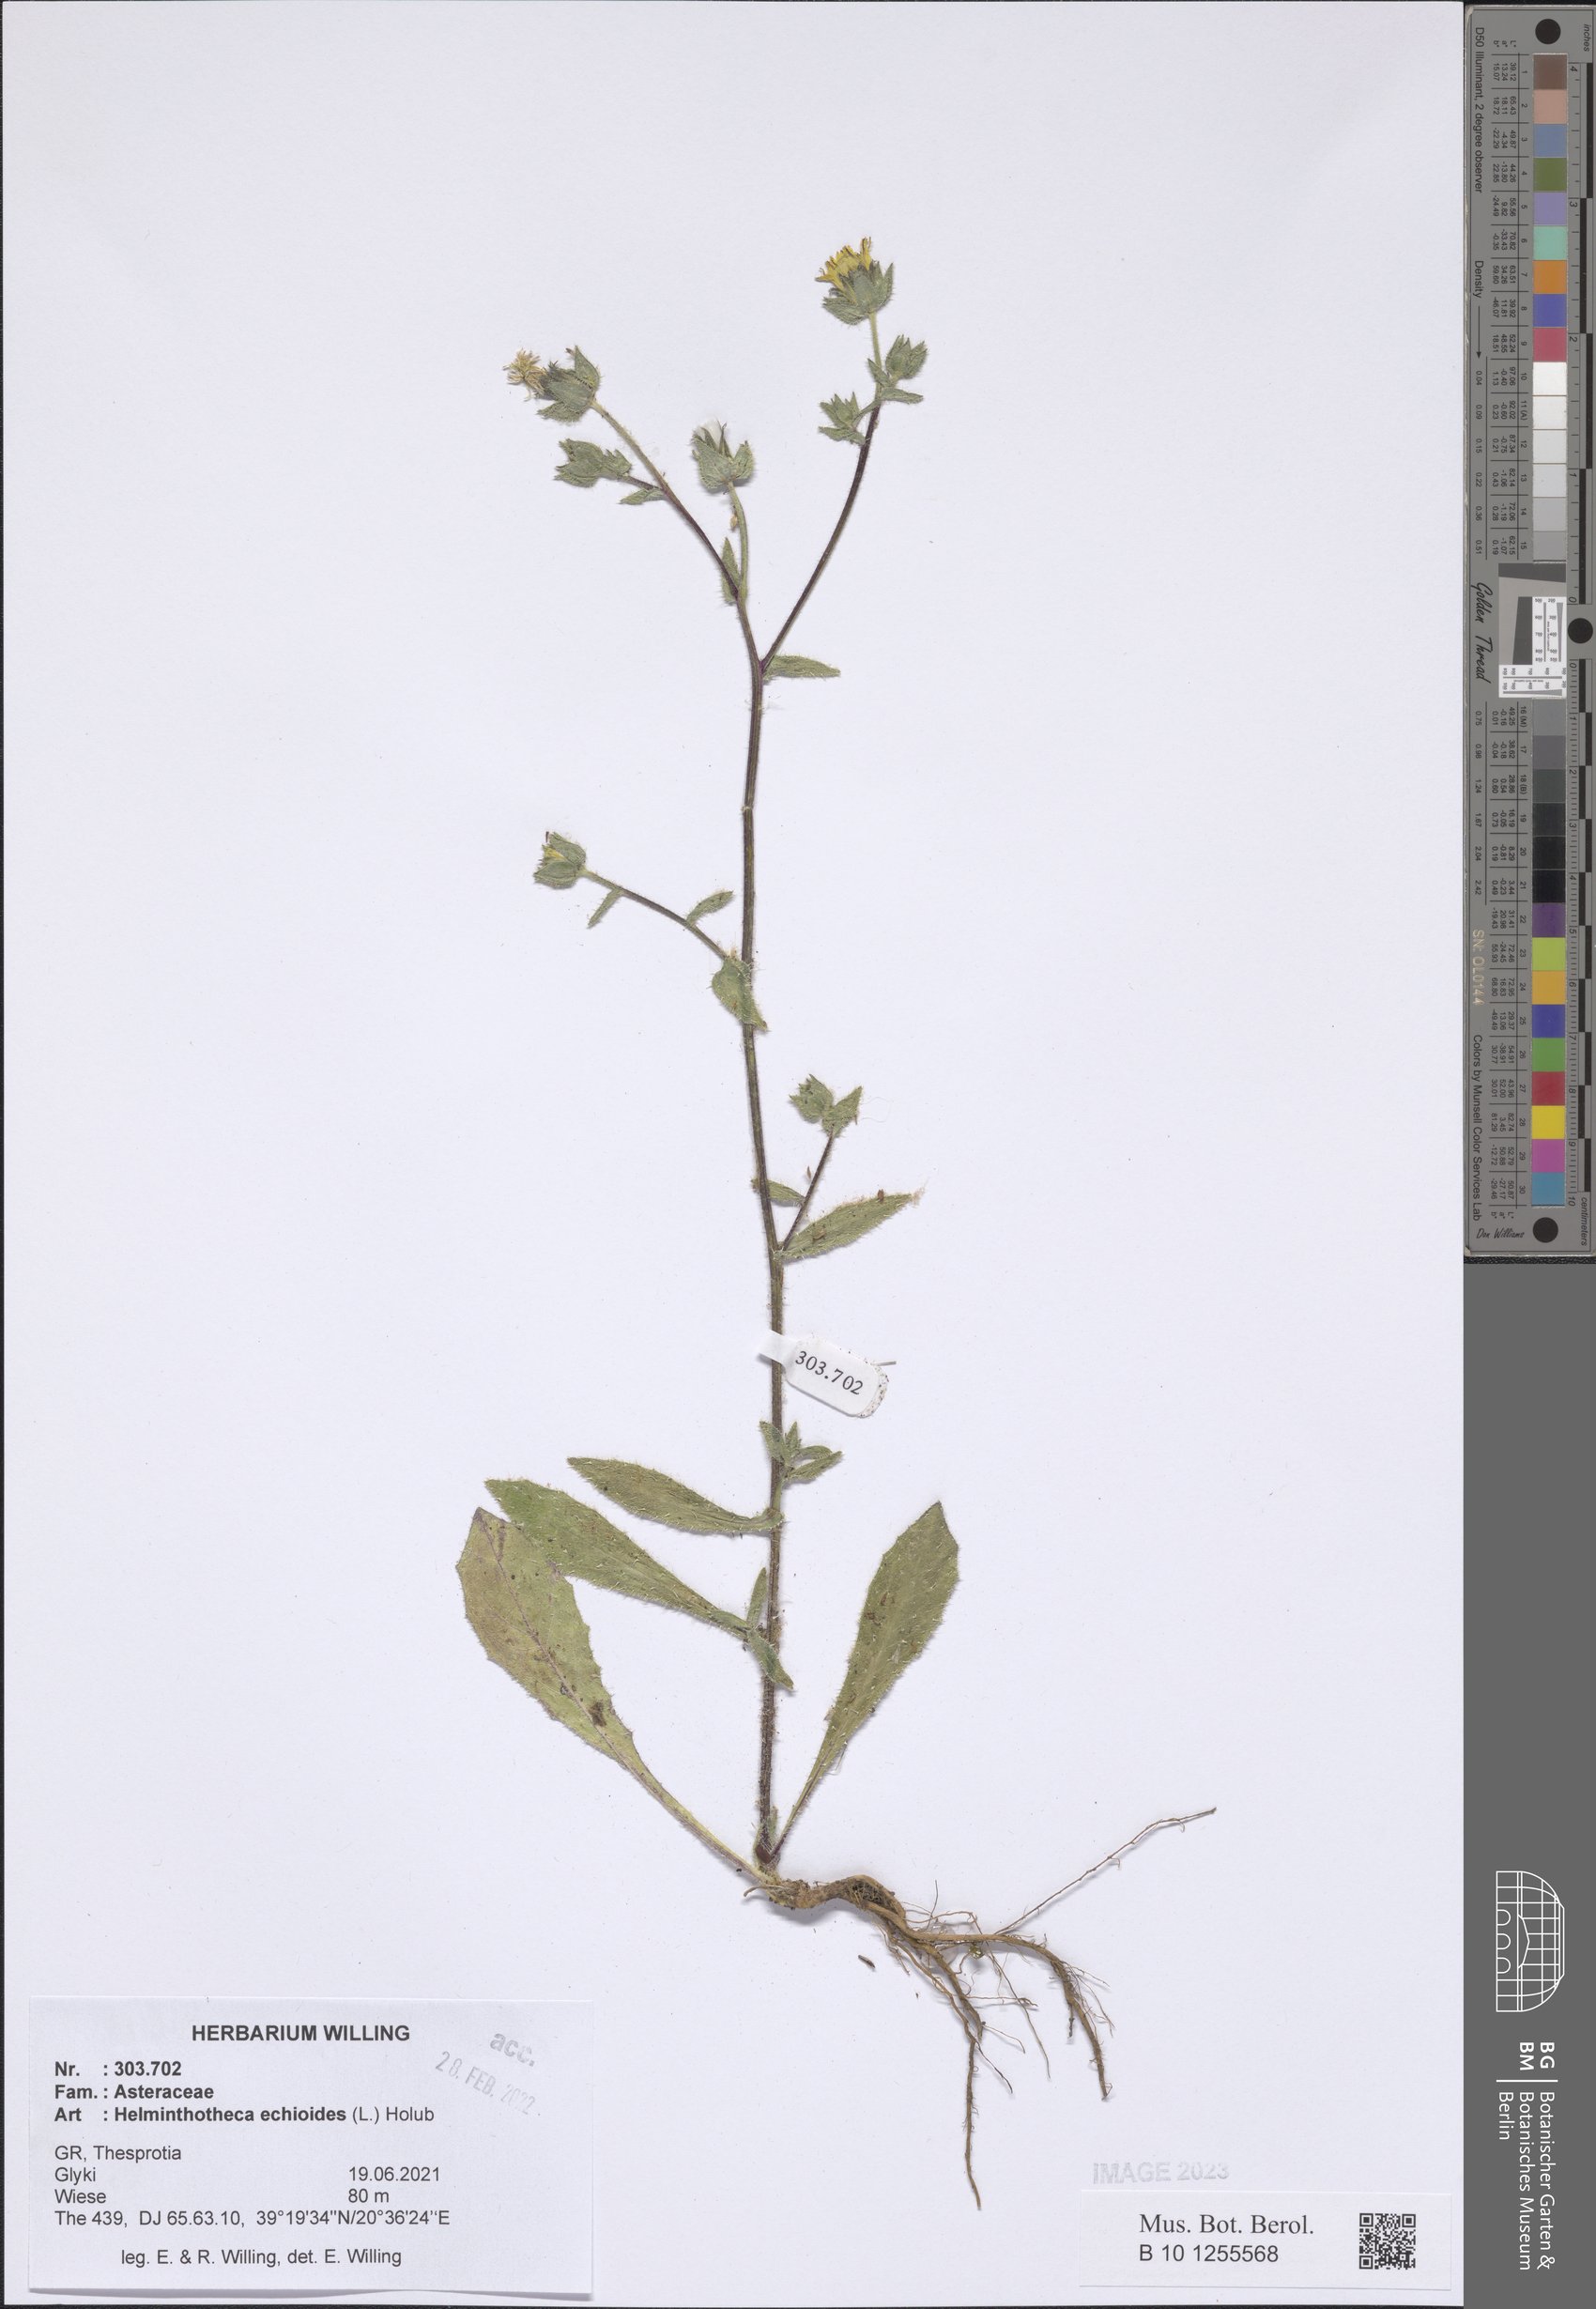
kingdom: Plantae
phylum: Tracheophyta
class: Magnoliopsida
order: Asterales
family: Asteraceae
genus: Helminthotheca
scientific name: Helminthotheca echioides
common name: Ox-tongue
